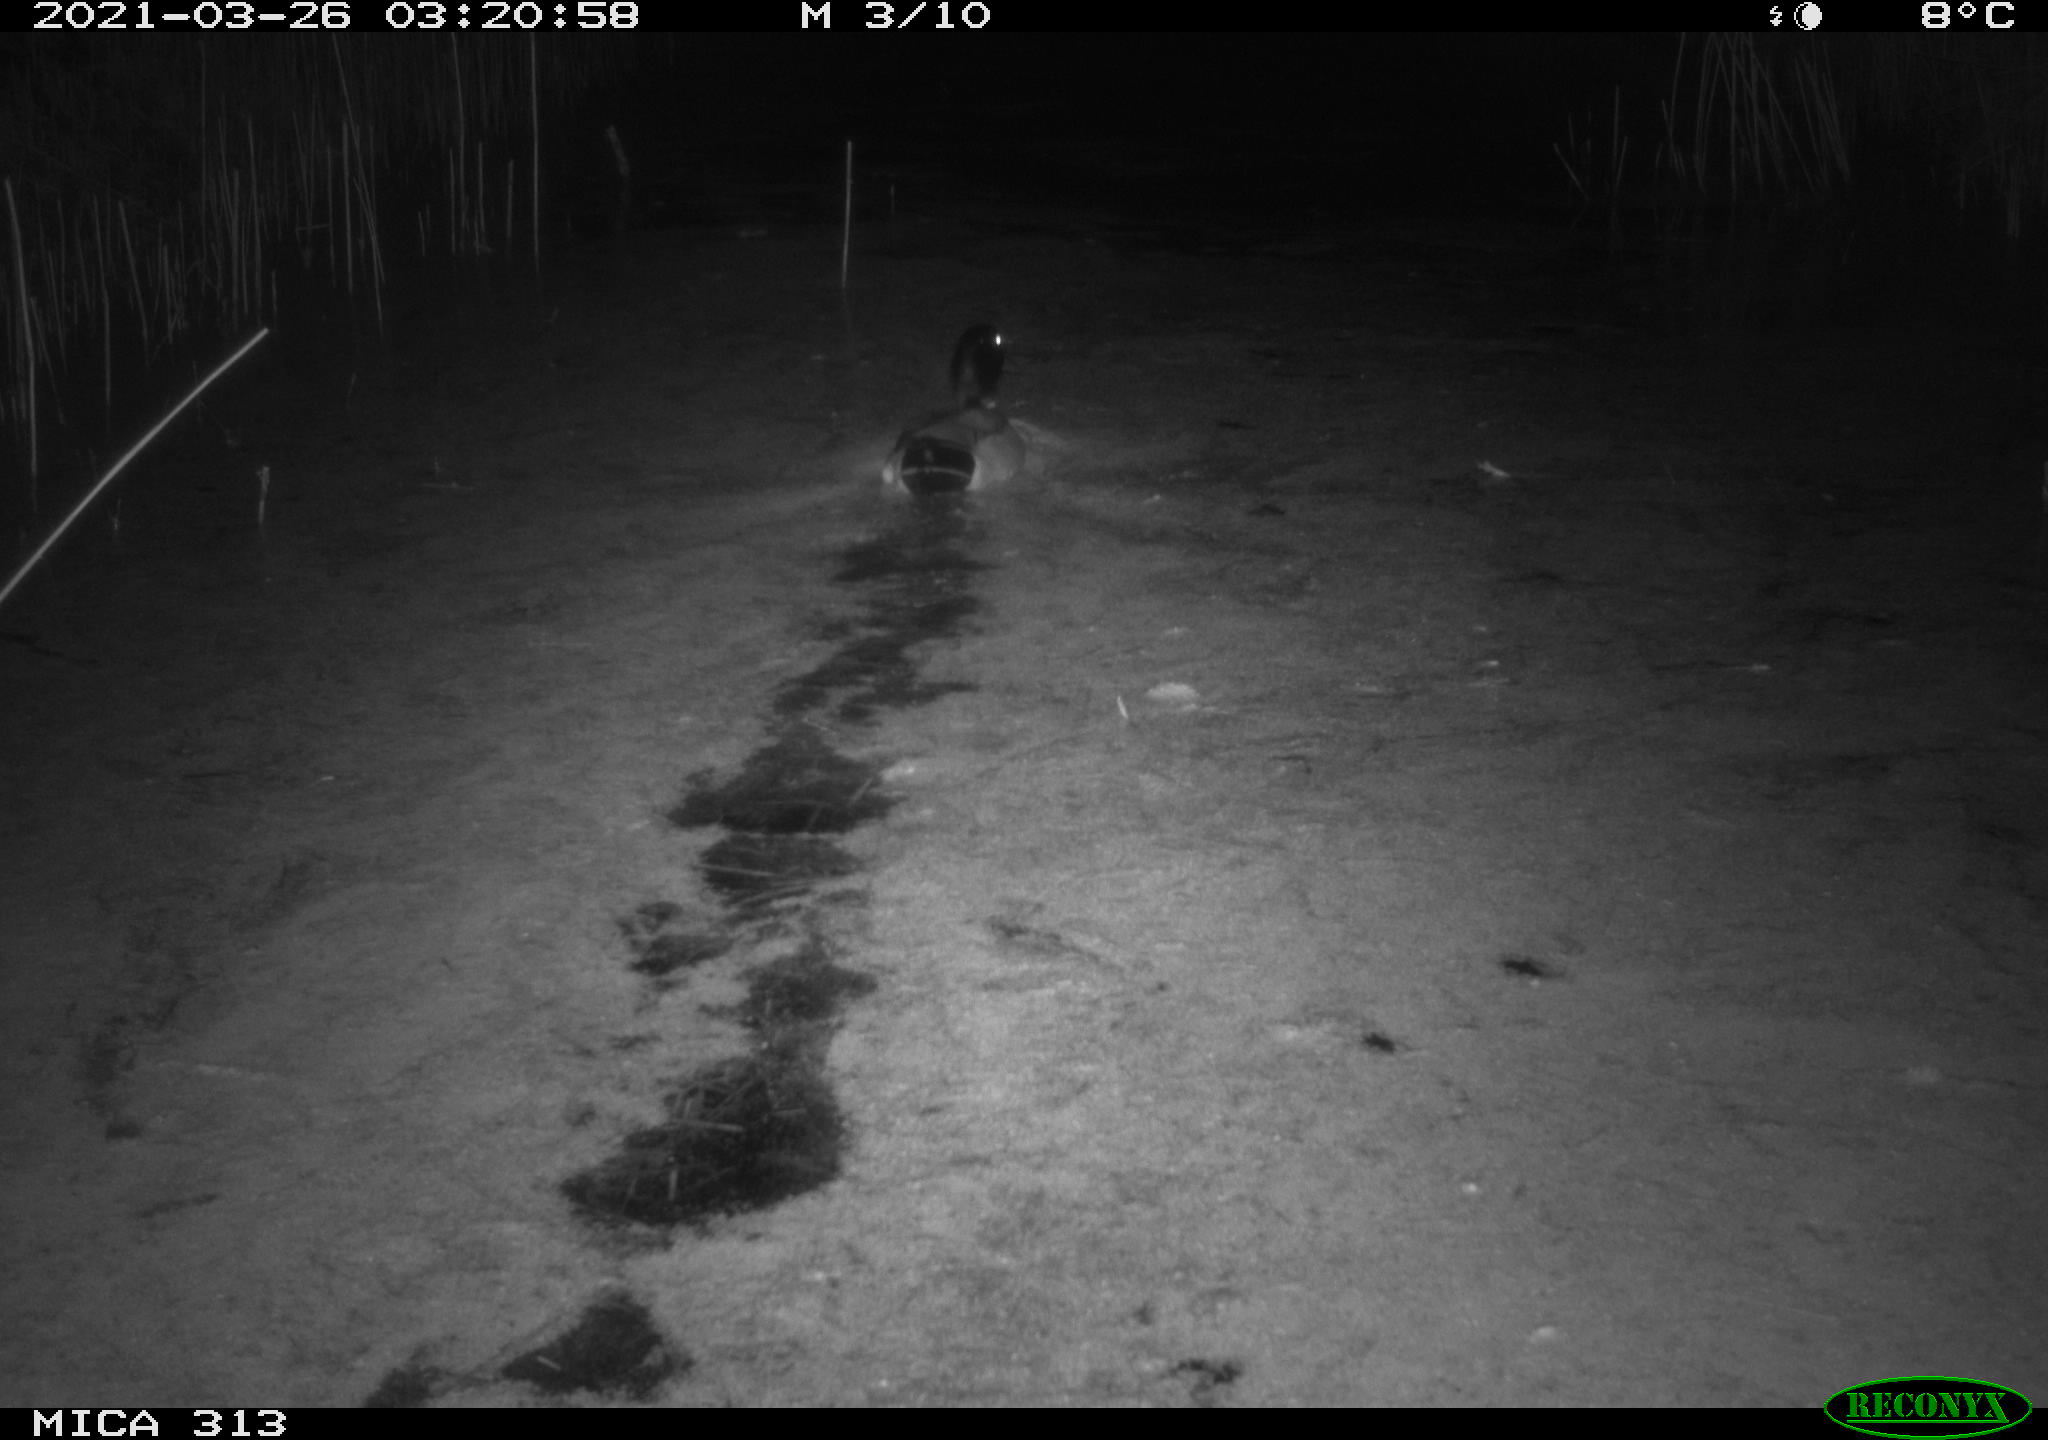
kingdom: Animalia
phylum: Chordata
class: Aves
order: Anseriformes
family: Anatidae
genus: Anas
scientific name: Anas platyrhynchos
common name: Mallard
